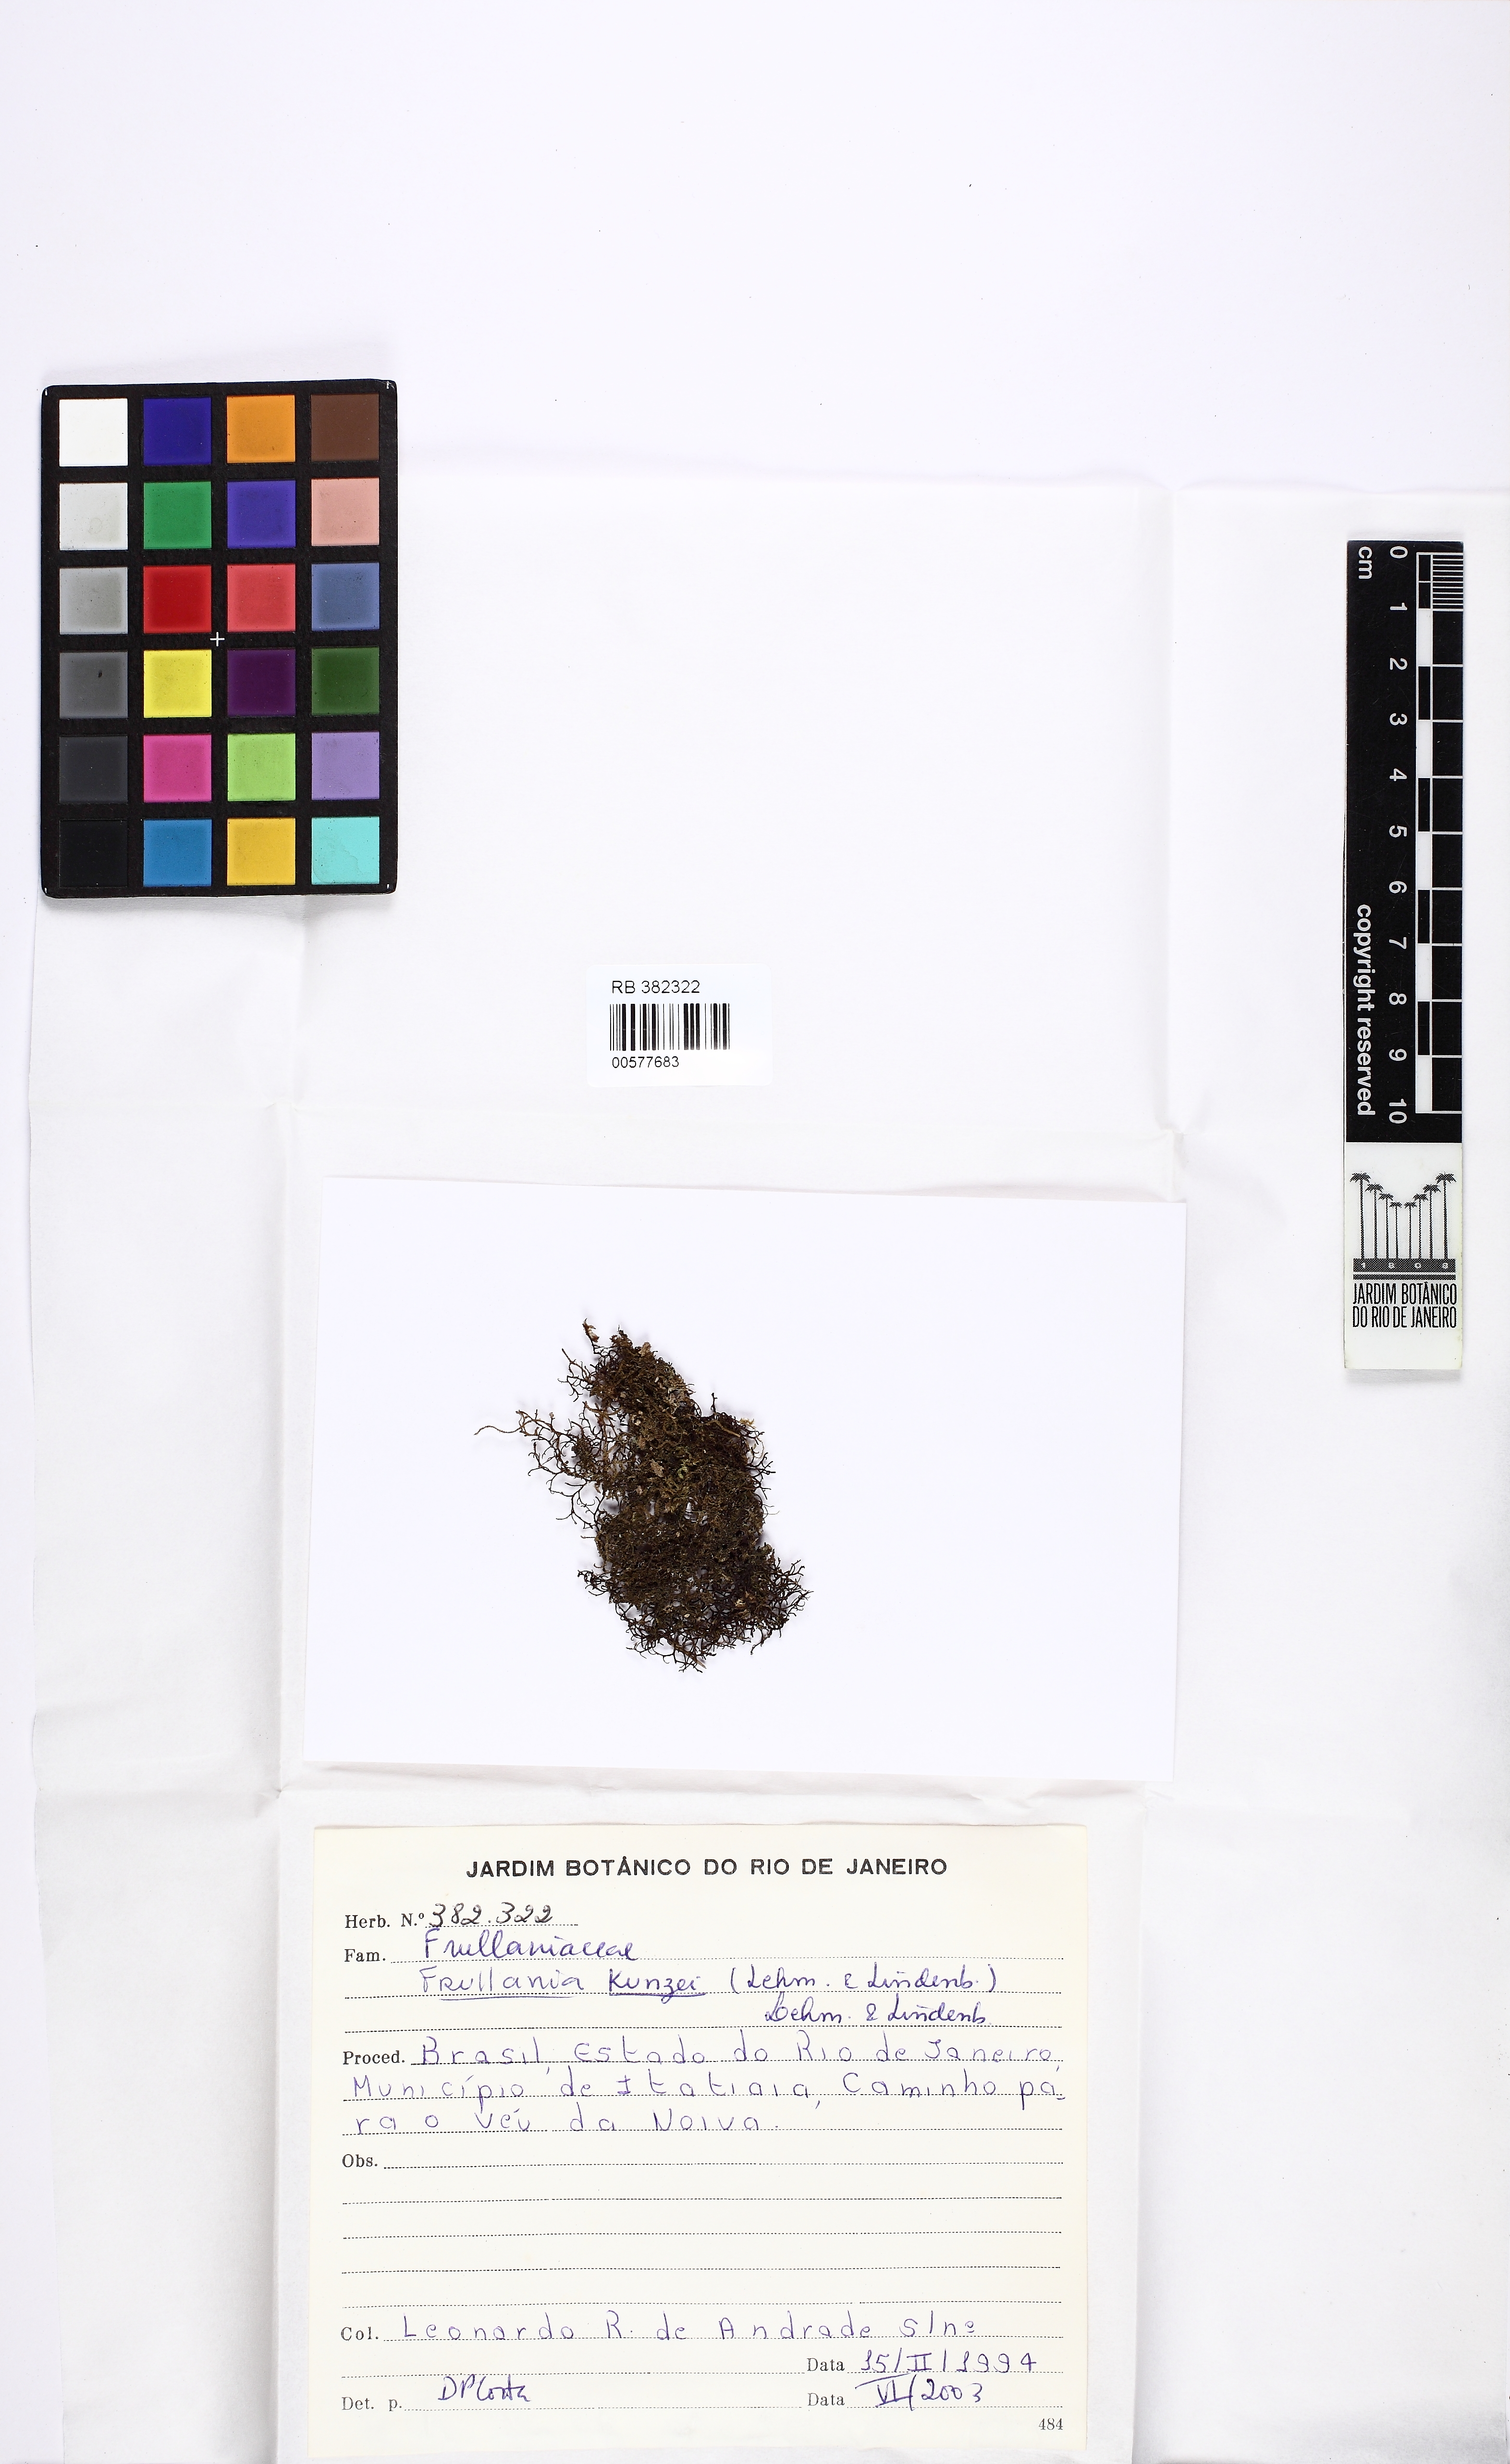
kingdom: Plantae
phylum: Marchantiophyta
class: Jungermanniopsida
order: Porellales
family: Frullaniaceae
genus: Frullania
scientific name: Frullania kunzei
